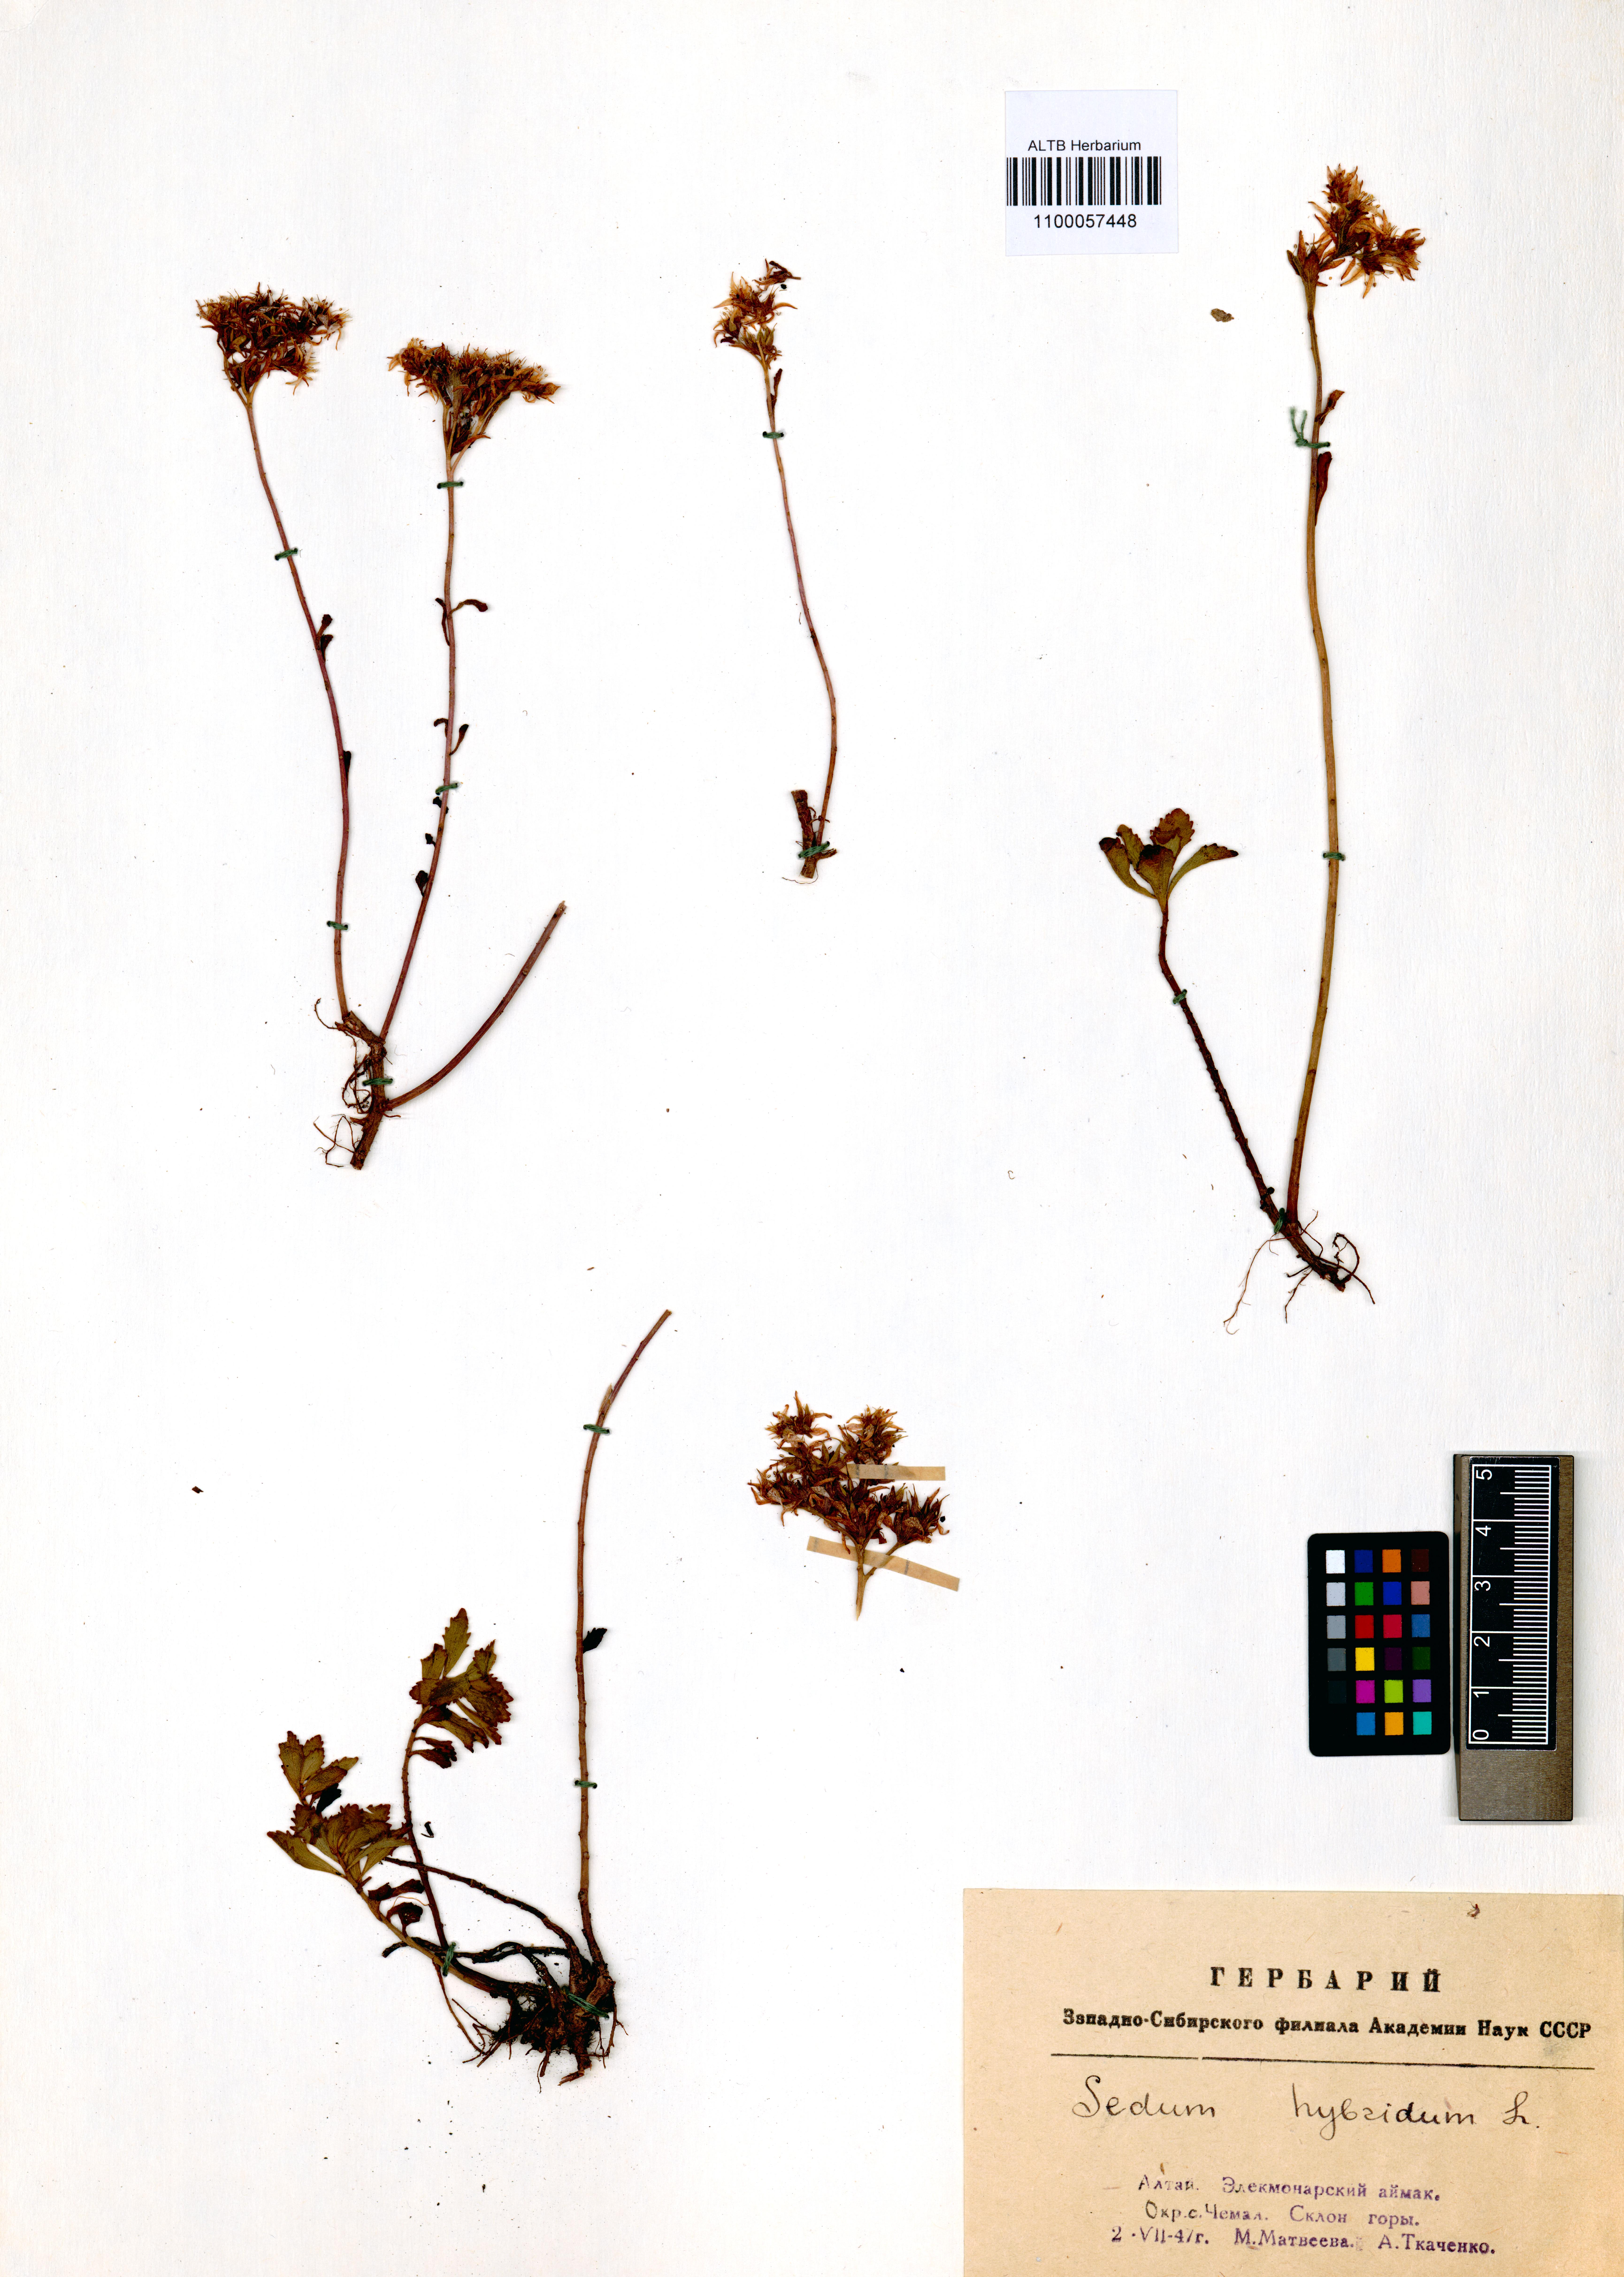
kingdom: Plantae
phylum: Tracheophyta
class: Magnoliopsida
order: Saxifragales
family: Crassulaceae
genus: Phedimus
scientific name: Phedimus hybridus
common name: Hybrid stonecrop
